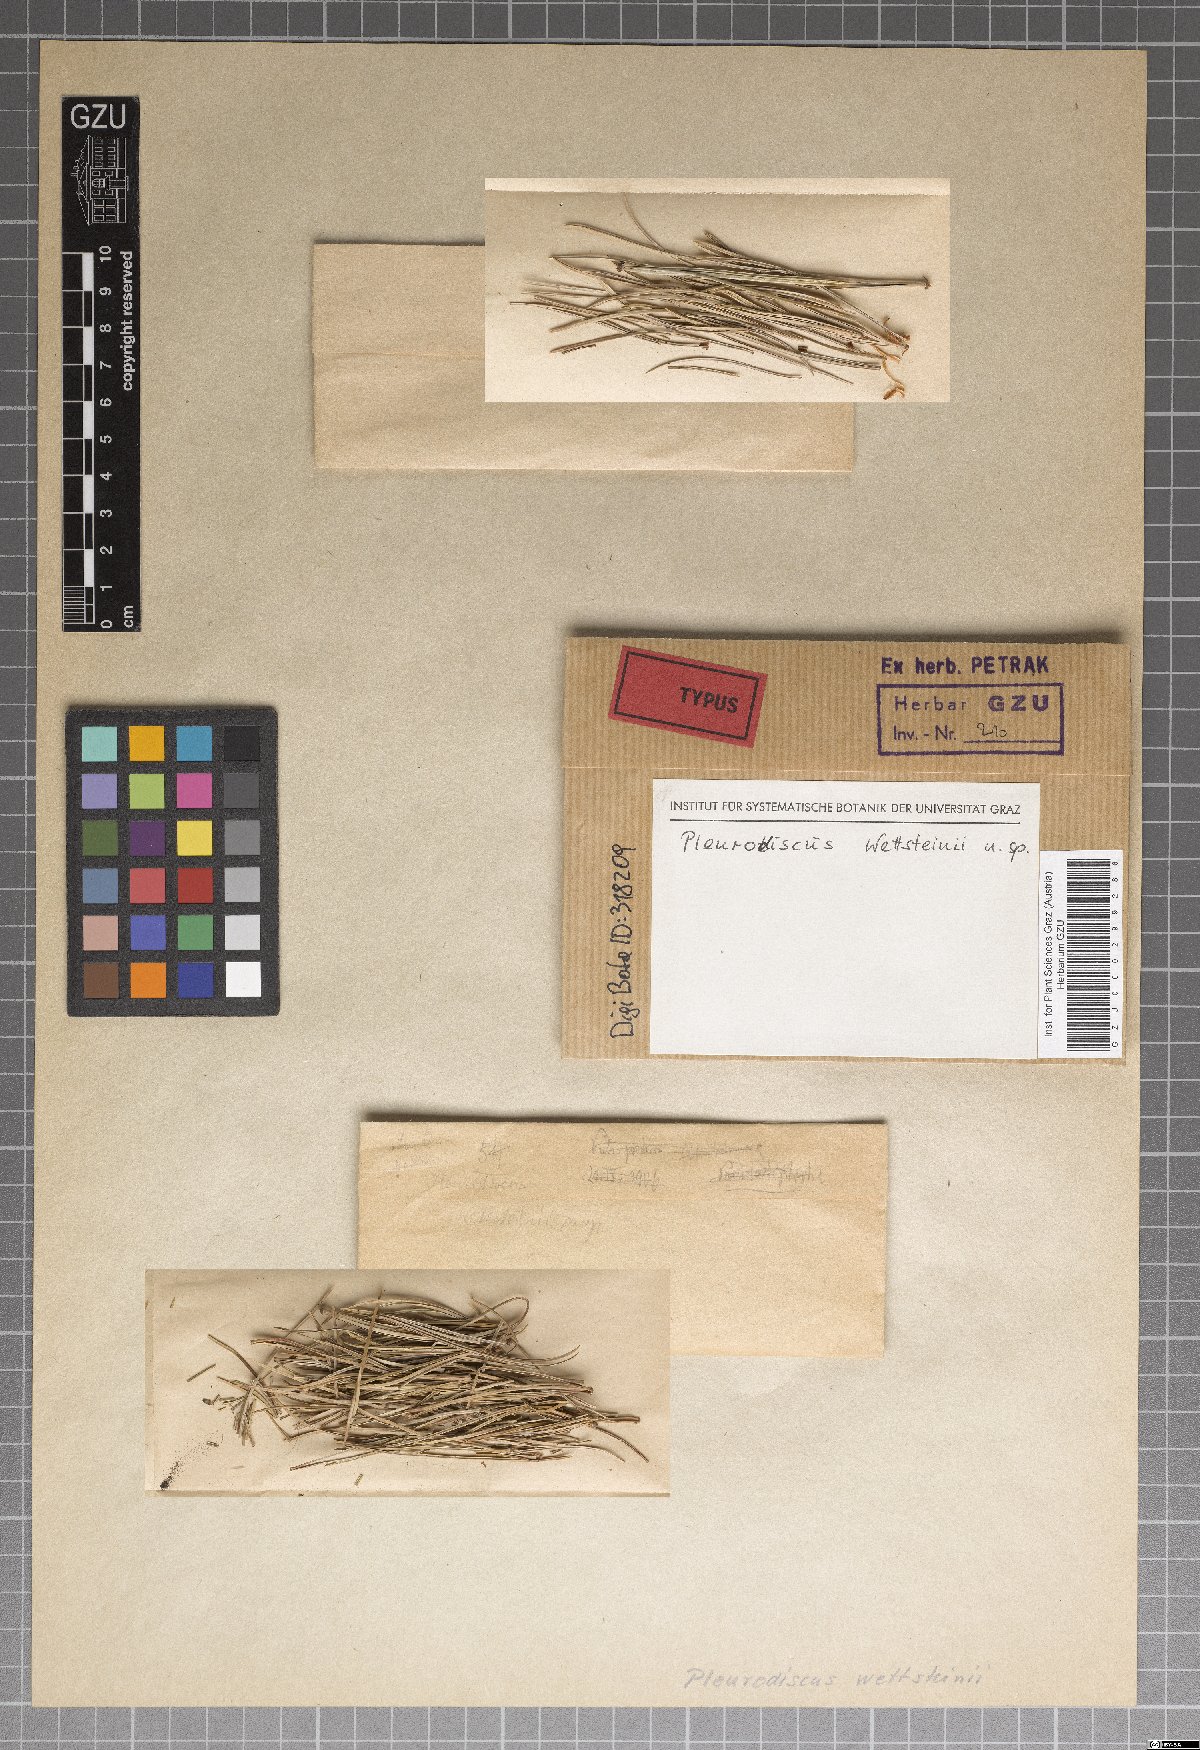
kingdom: Fungi
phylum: Ascomycota
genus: Pleurodiscus
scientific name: Pleurodiscus wettsteinii
